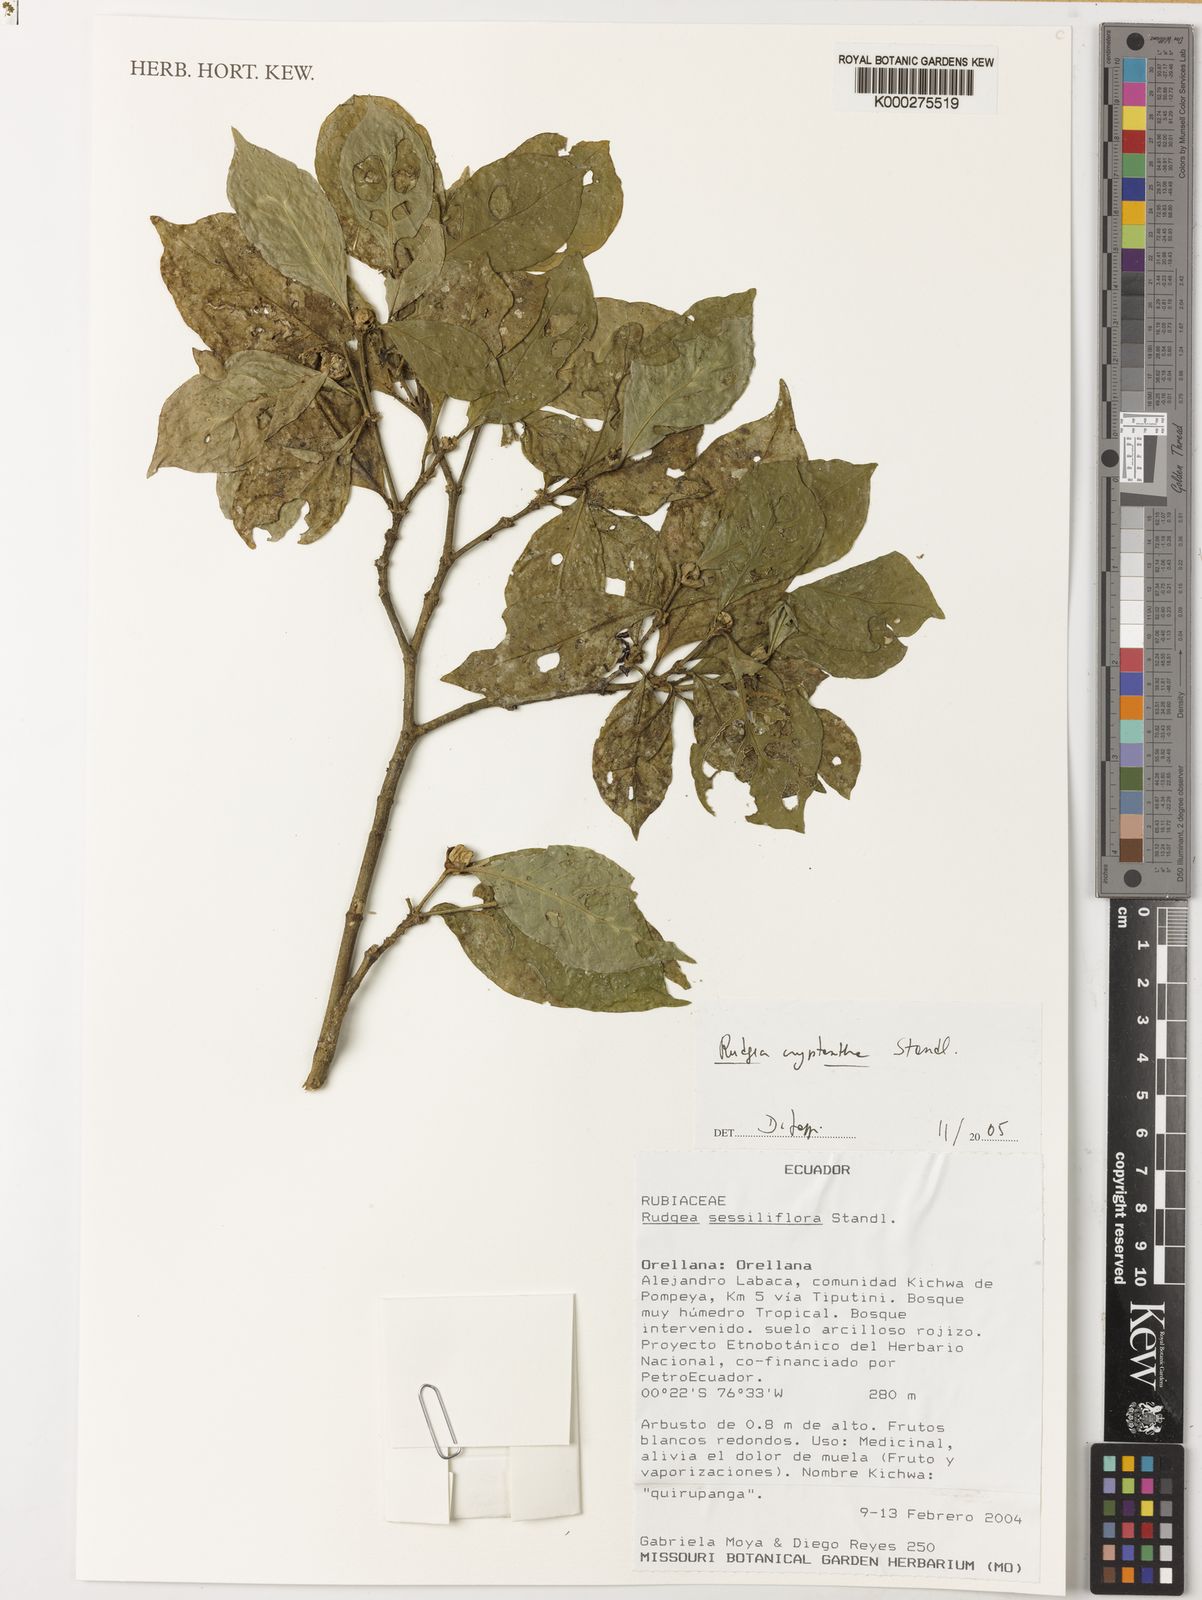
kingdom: Plantae
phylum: Tracheophyta
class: Magnoliopsida
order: Gentianales
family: Rubiaceae
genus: Rudgea
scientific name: Rudgea cryptantha
